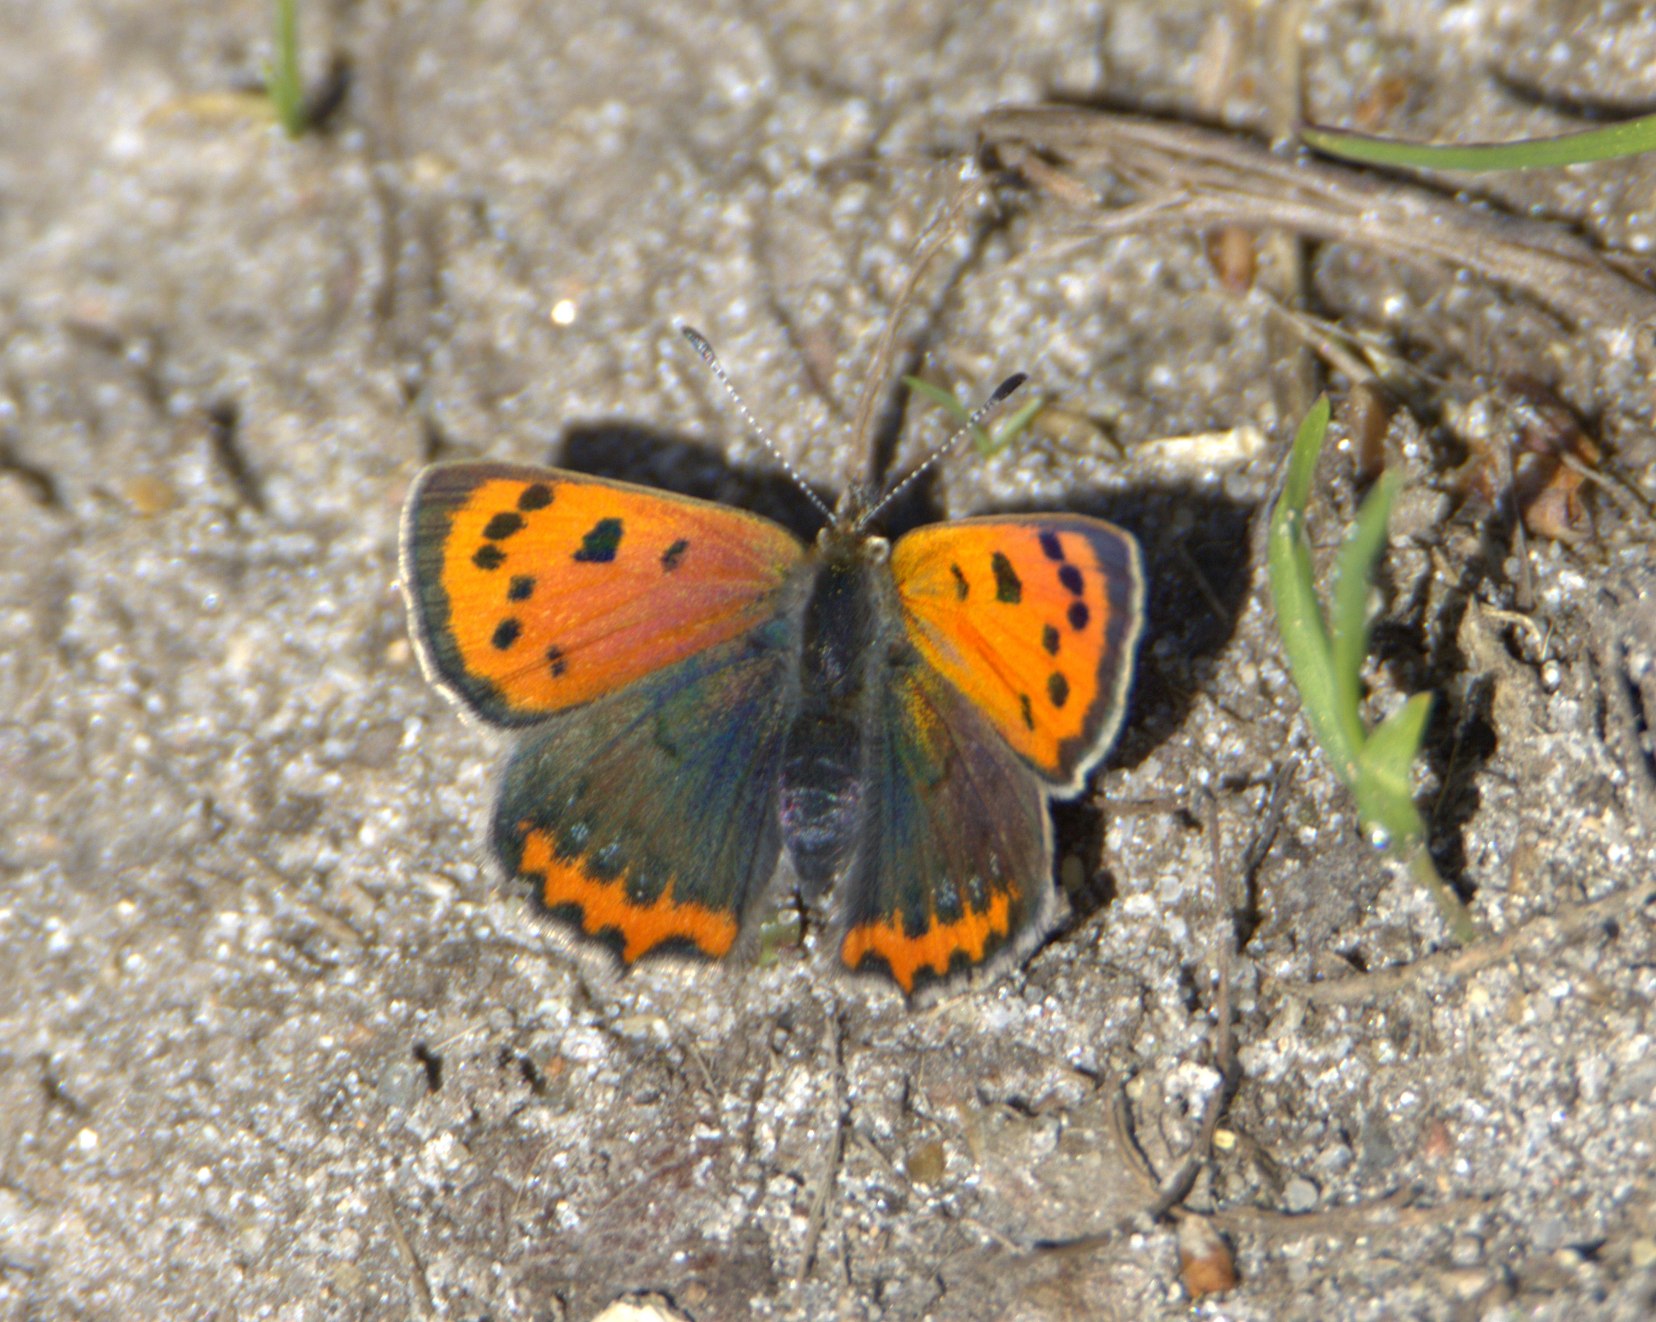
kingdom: Animalia
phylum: Arthropoda
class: Insecta
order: Lepidoptera
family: Lycaenidae
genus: Lycaena
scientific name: Lycaena phlaeas
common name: Lille ildfugl
